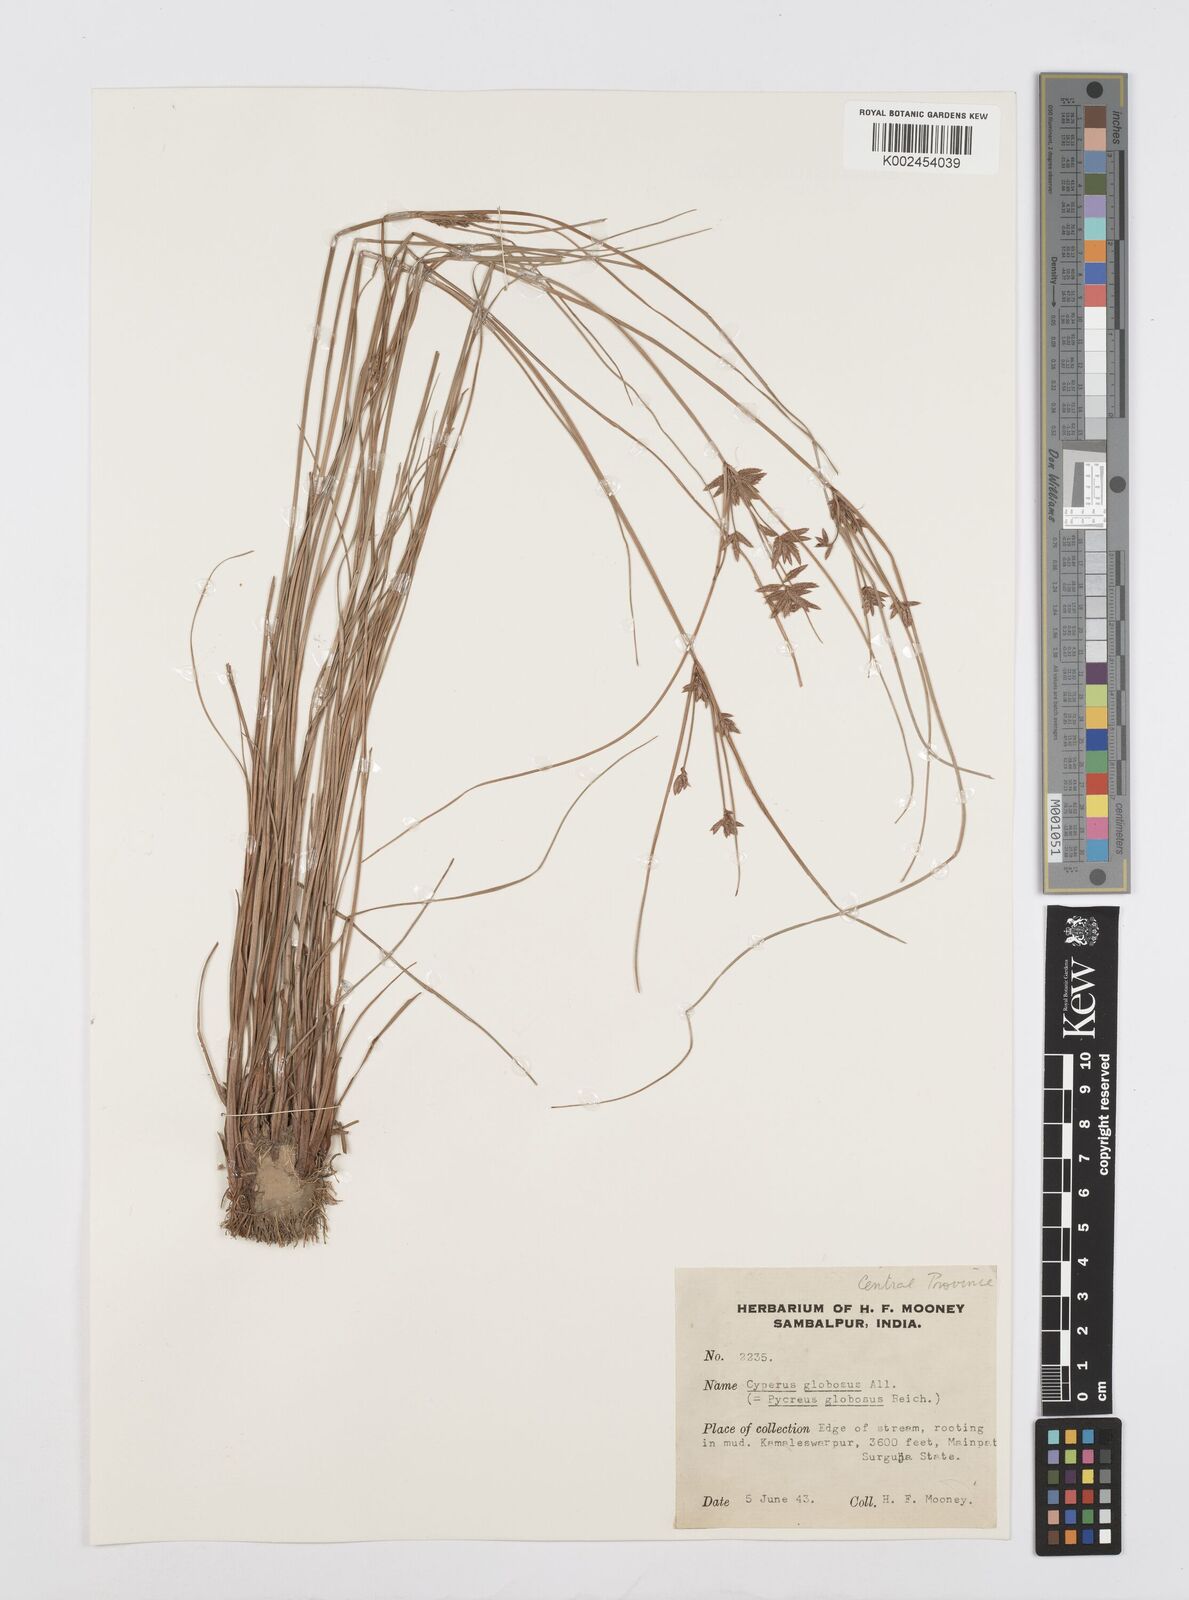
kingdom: Plantae
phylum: Tracheophyta
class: Liliopsida
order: Poales
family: Cyperaceae
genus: Cyperus
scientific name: Cyperus flavidus
